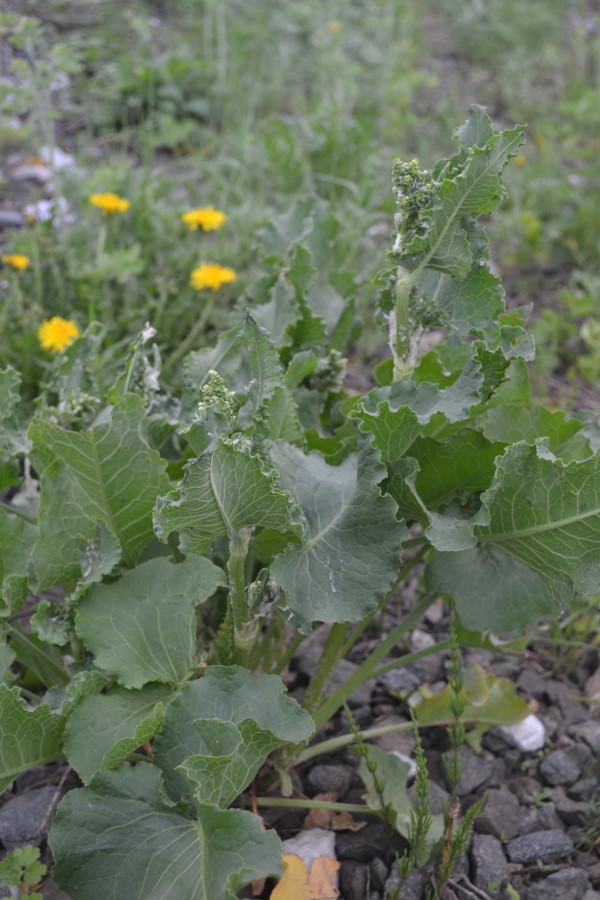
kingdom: Plantae
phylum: Tracheophyta
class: Magnoliopsida
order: Caryophyllales
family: Polygonaceae
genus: Rumex
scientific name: Rumex confertus
